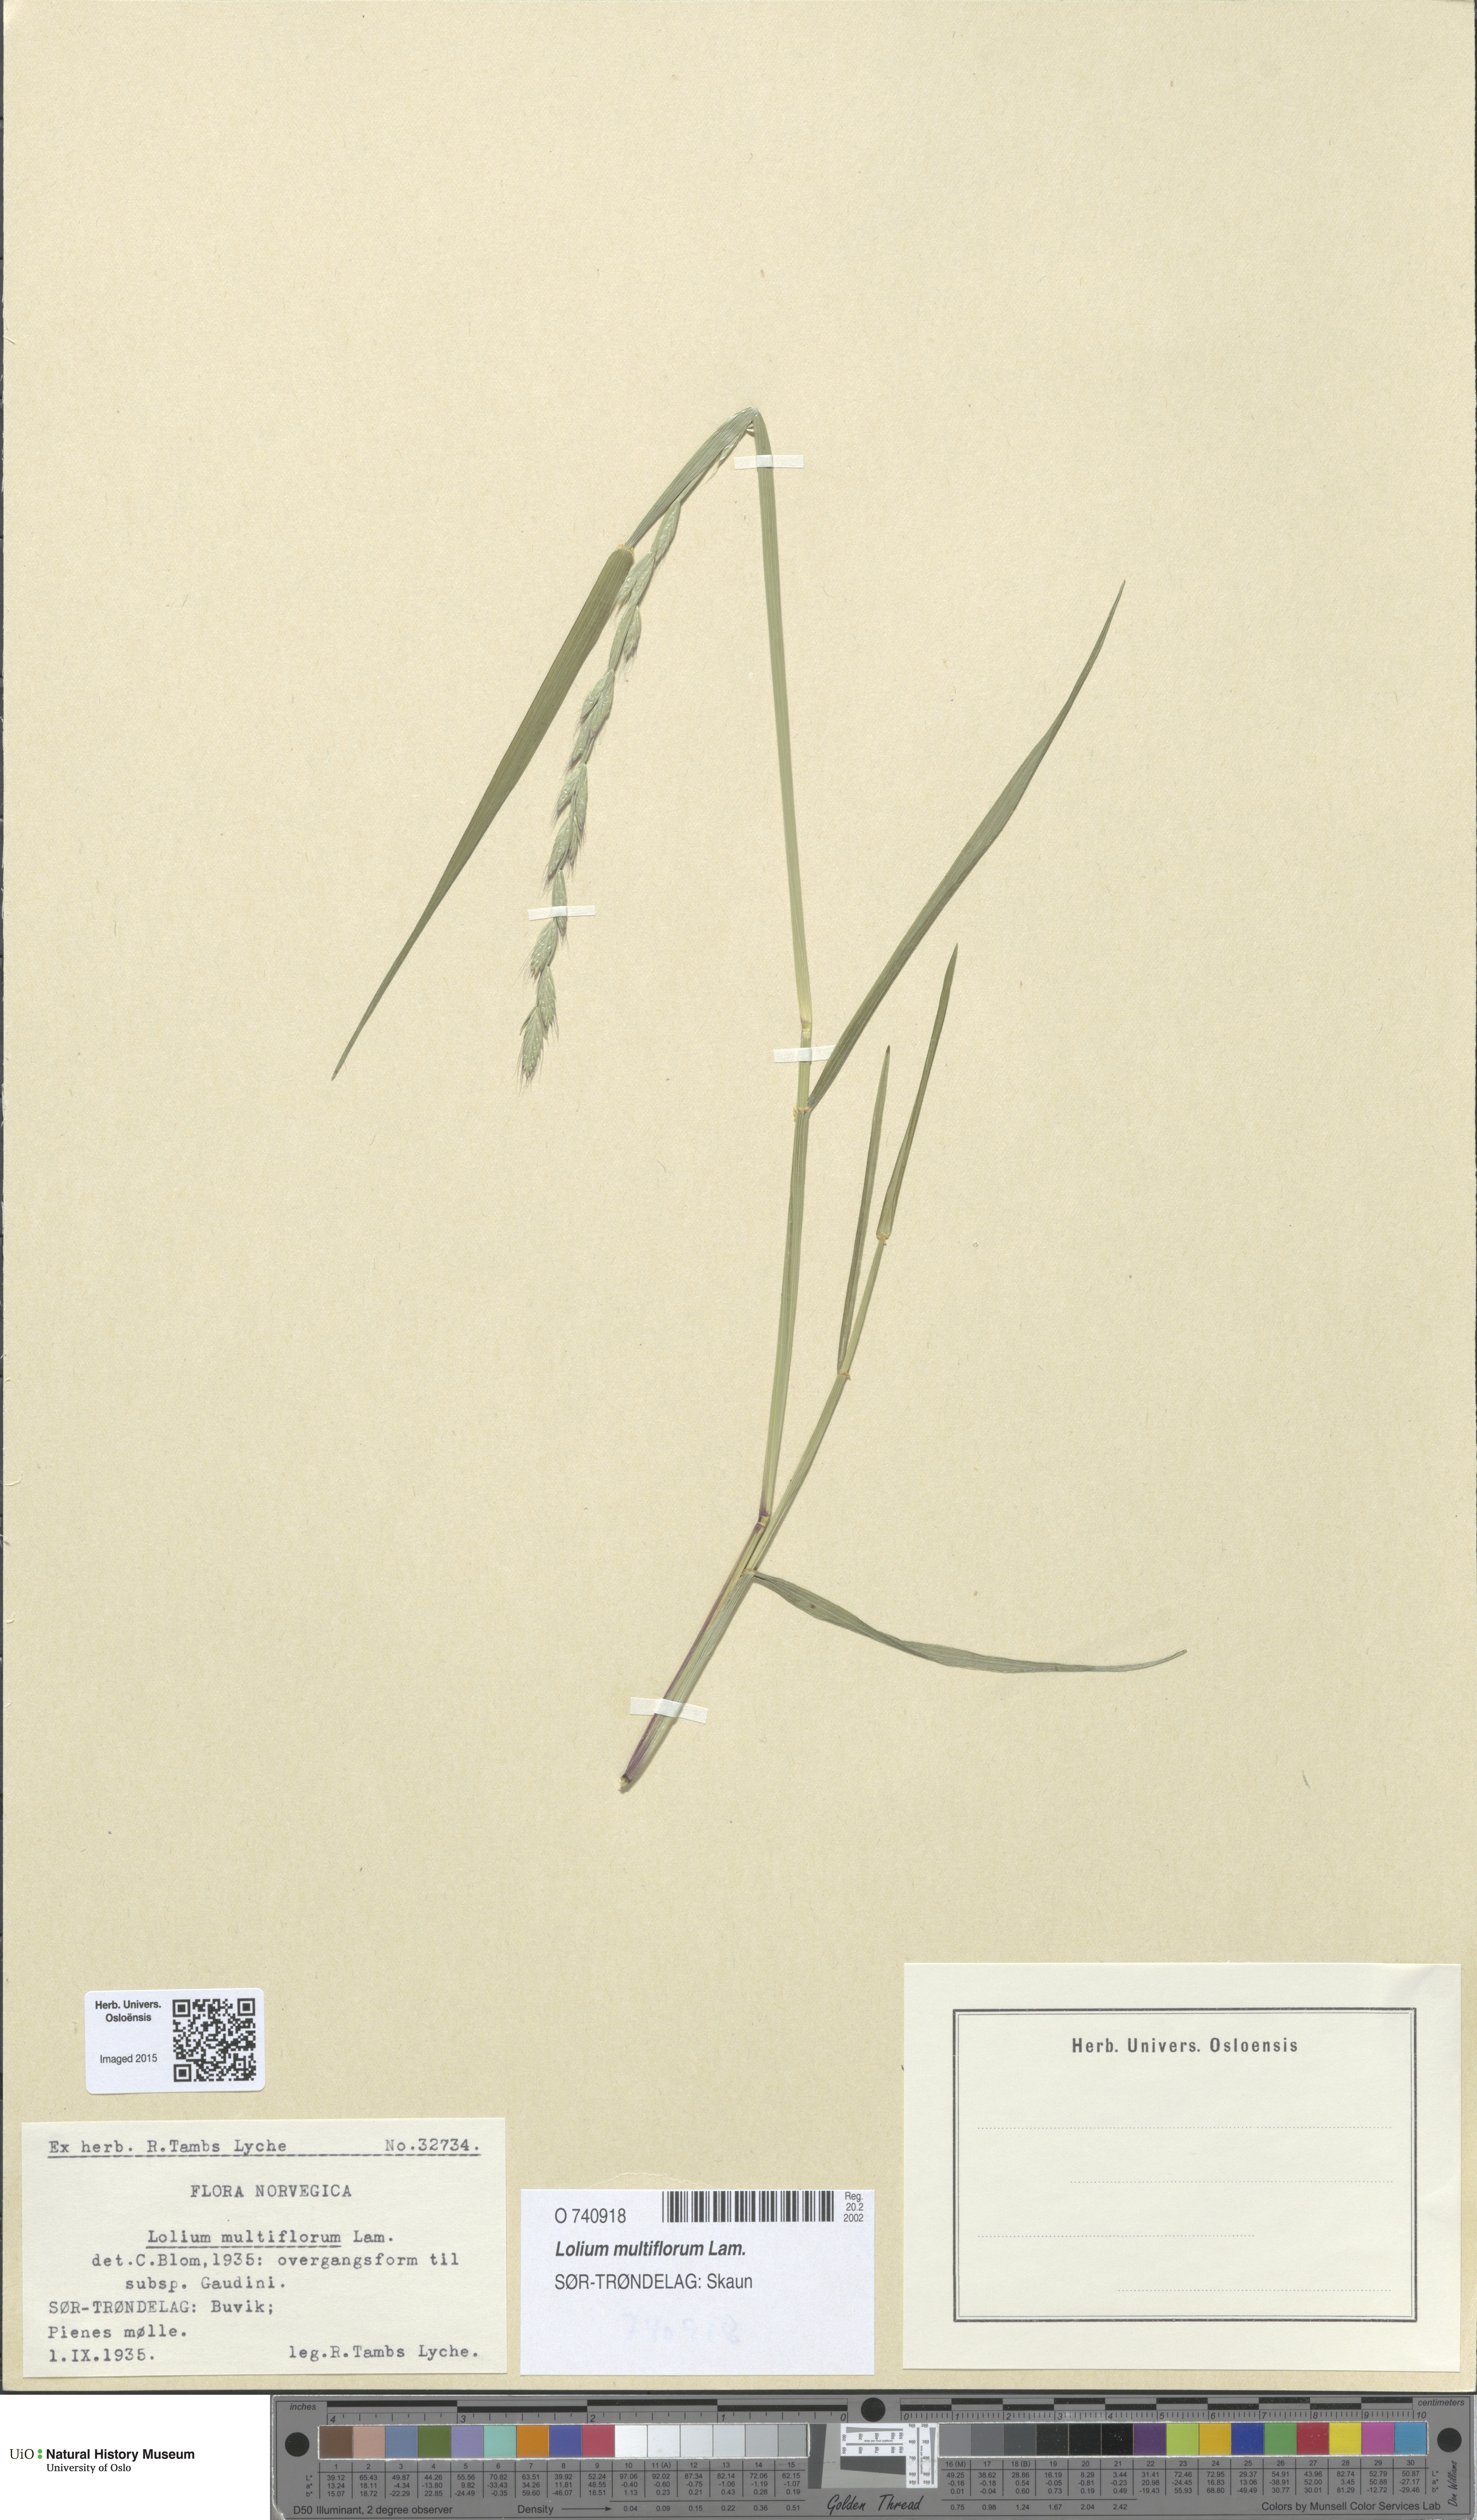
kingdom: Plantae
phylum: Tracheophyta
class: Liliopsida
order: Poales
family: Poaceae
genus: Lolium
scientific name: Lolium multiflorum
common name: Annual ryegrass
